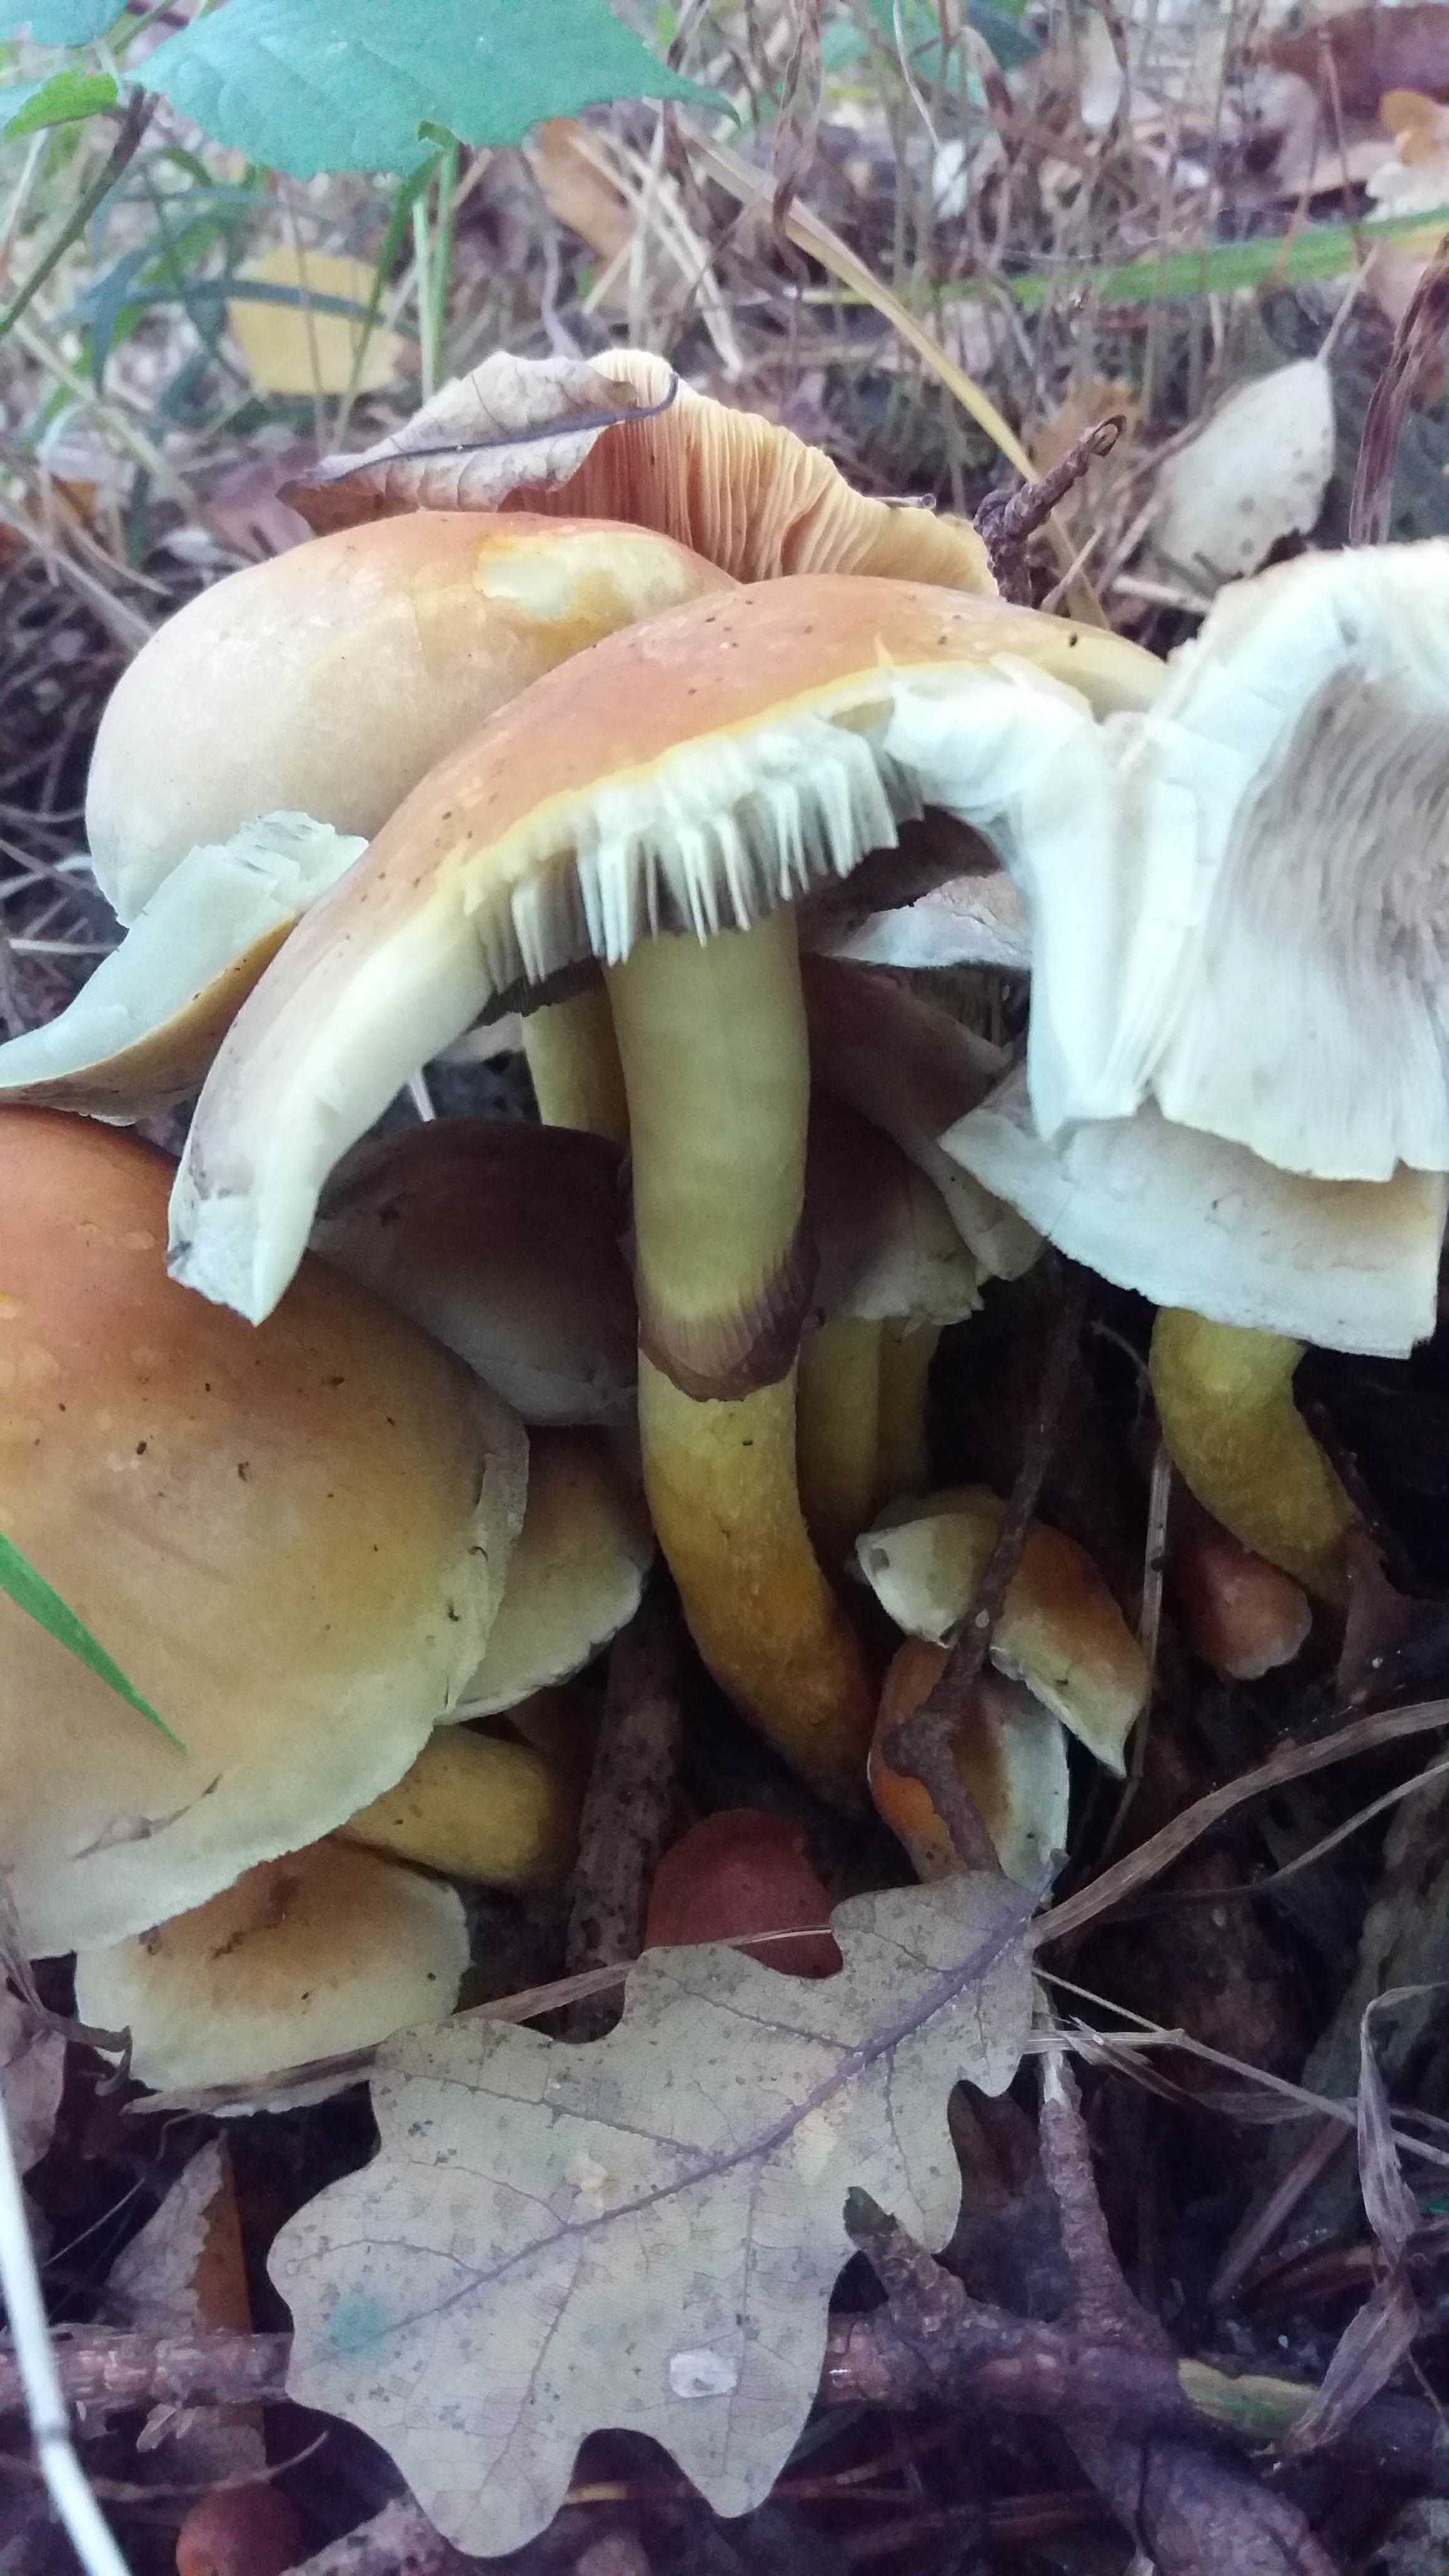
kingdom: Fungi
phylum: Basidiomycota
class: Agaricomycetes
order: Agaricales
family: Strophariaceae
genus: Hypholoma
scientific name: Hypholoma fasciculare
